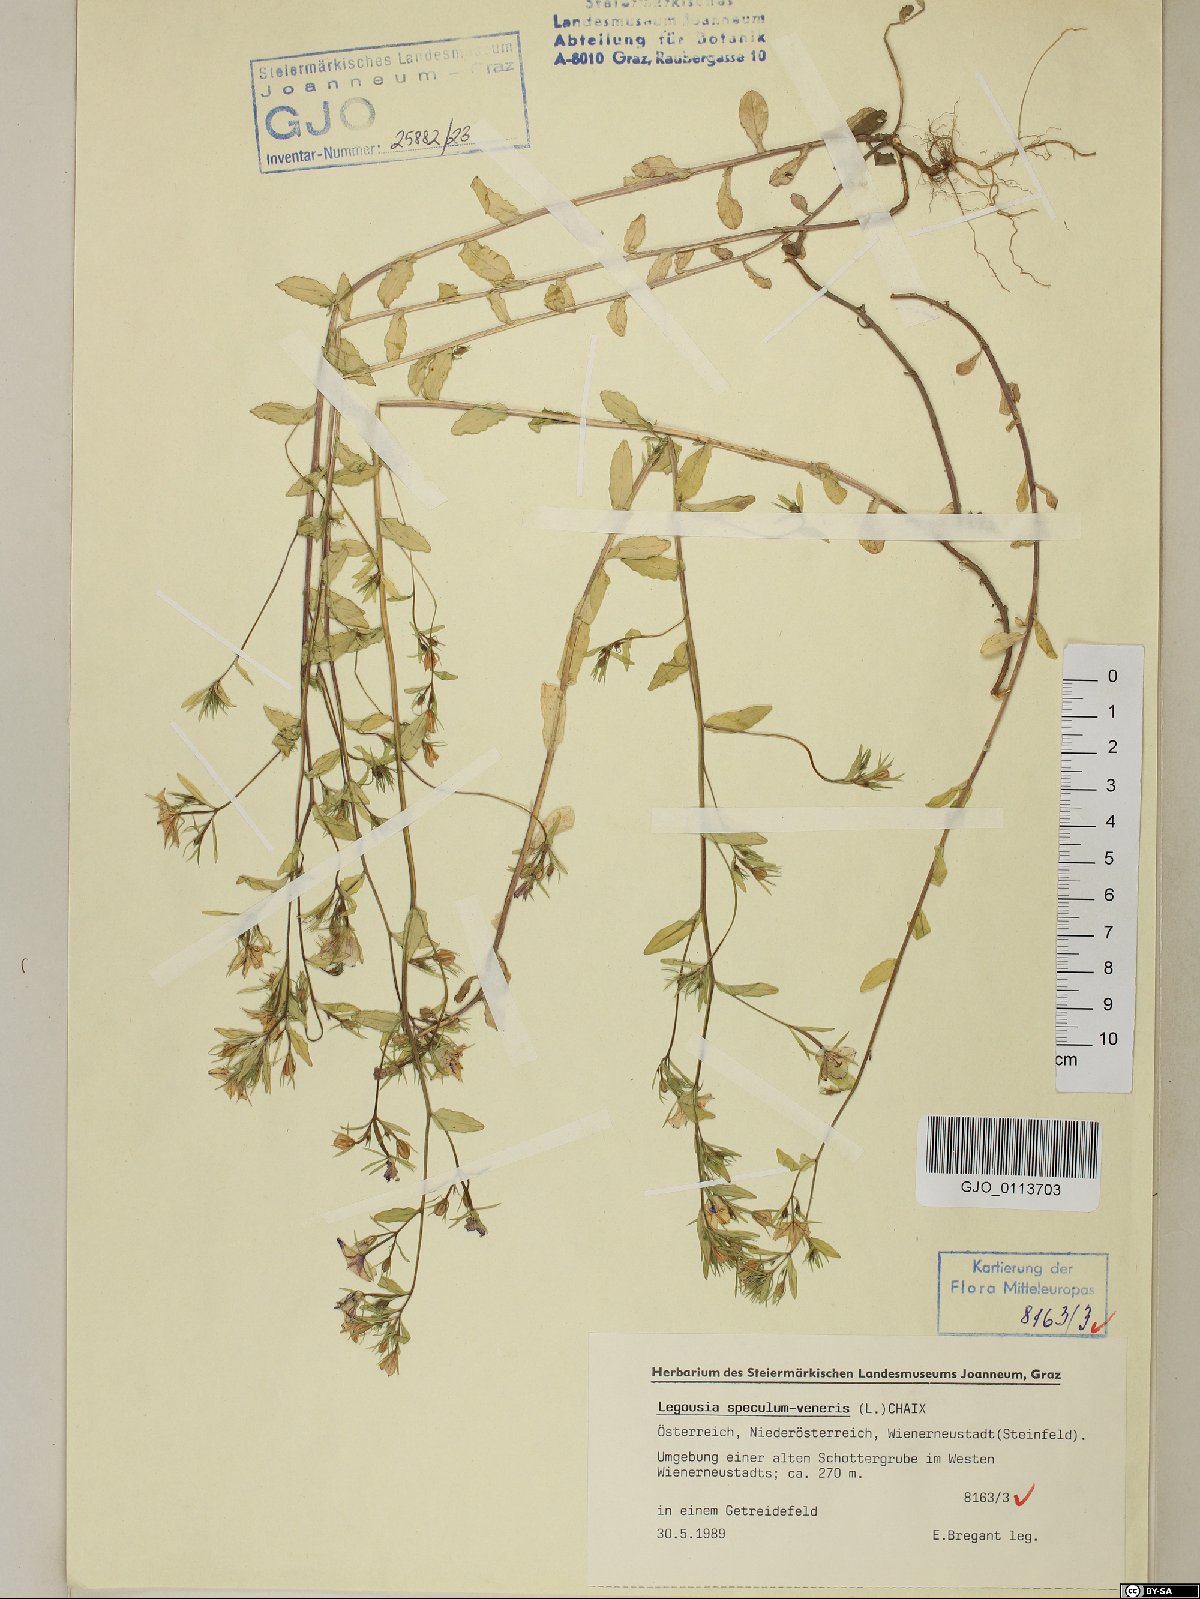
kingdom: Plantae
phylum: Tracheophyta
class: Magnoliopsida
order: Asterales
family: Campanulaceae
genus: Legousia
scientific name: Legousia speculum-veneris
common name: Large venus's-looking-glass
